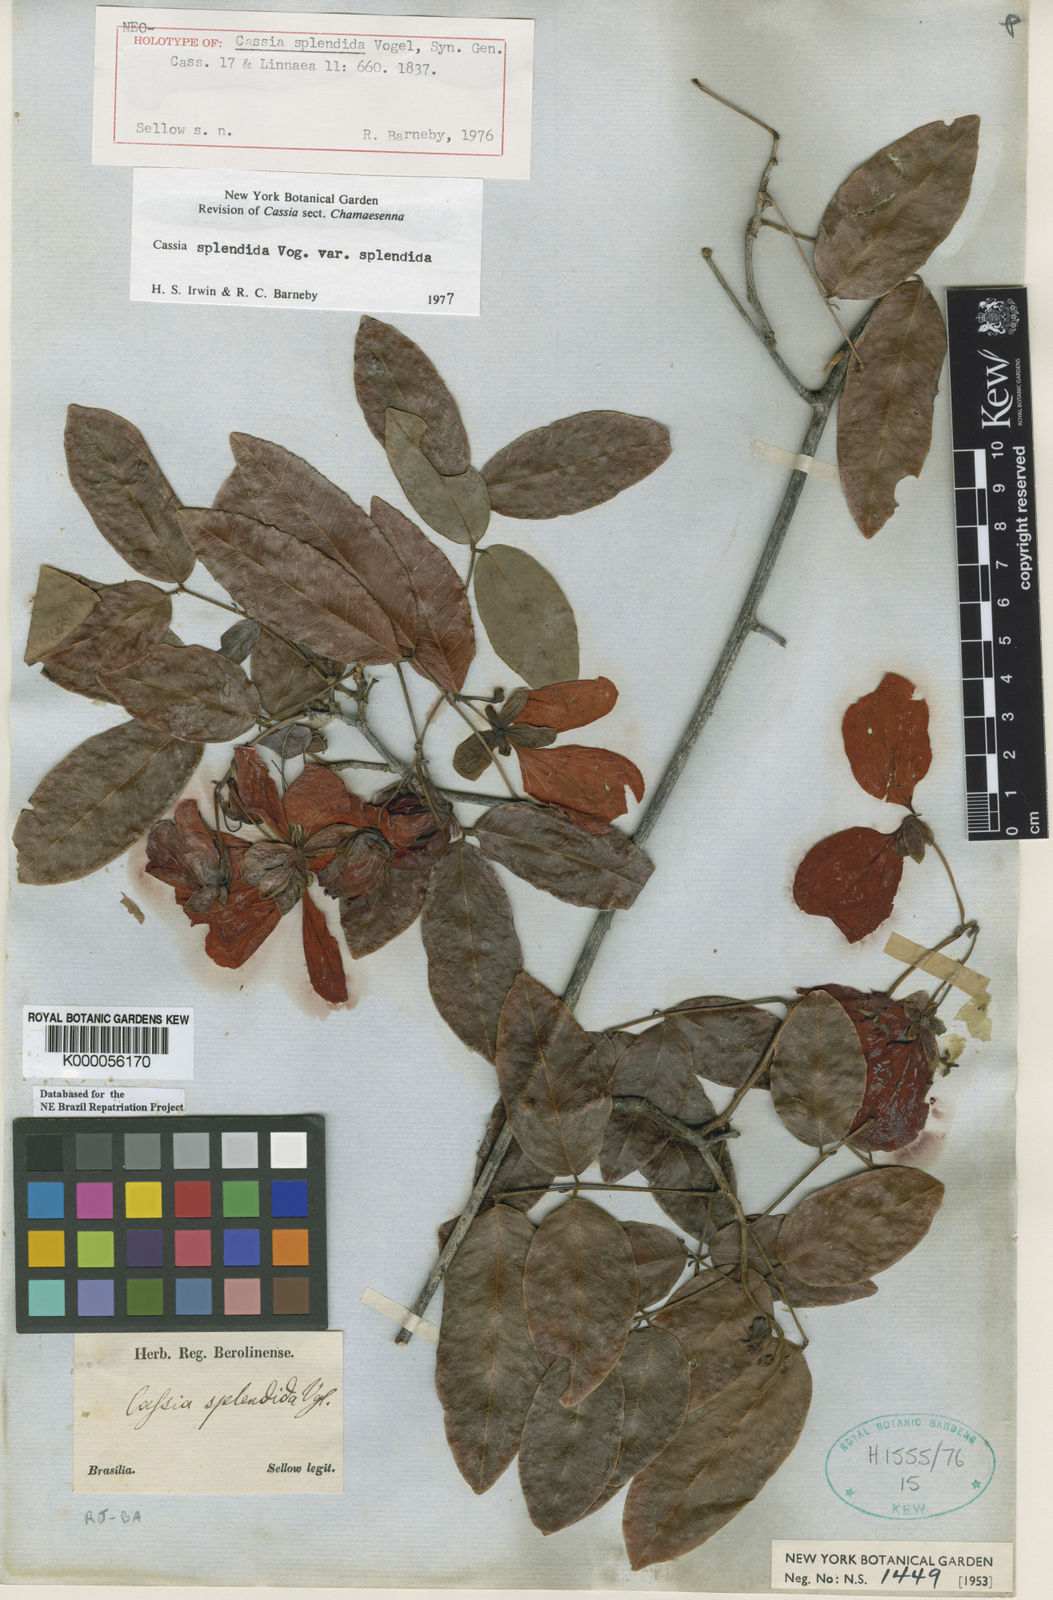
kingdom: Plantae
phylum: Tracheophyta
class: Magnoliopsida
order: Fabales
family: Fabaceae
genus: Senna
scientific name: Senna splendida
